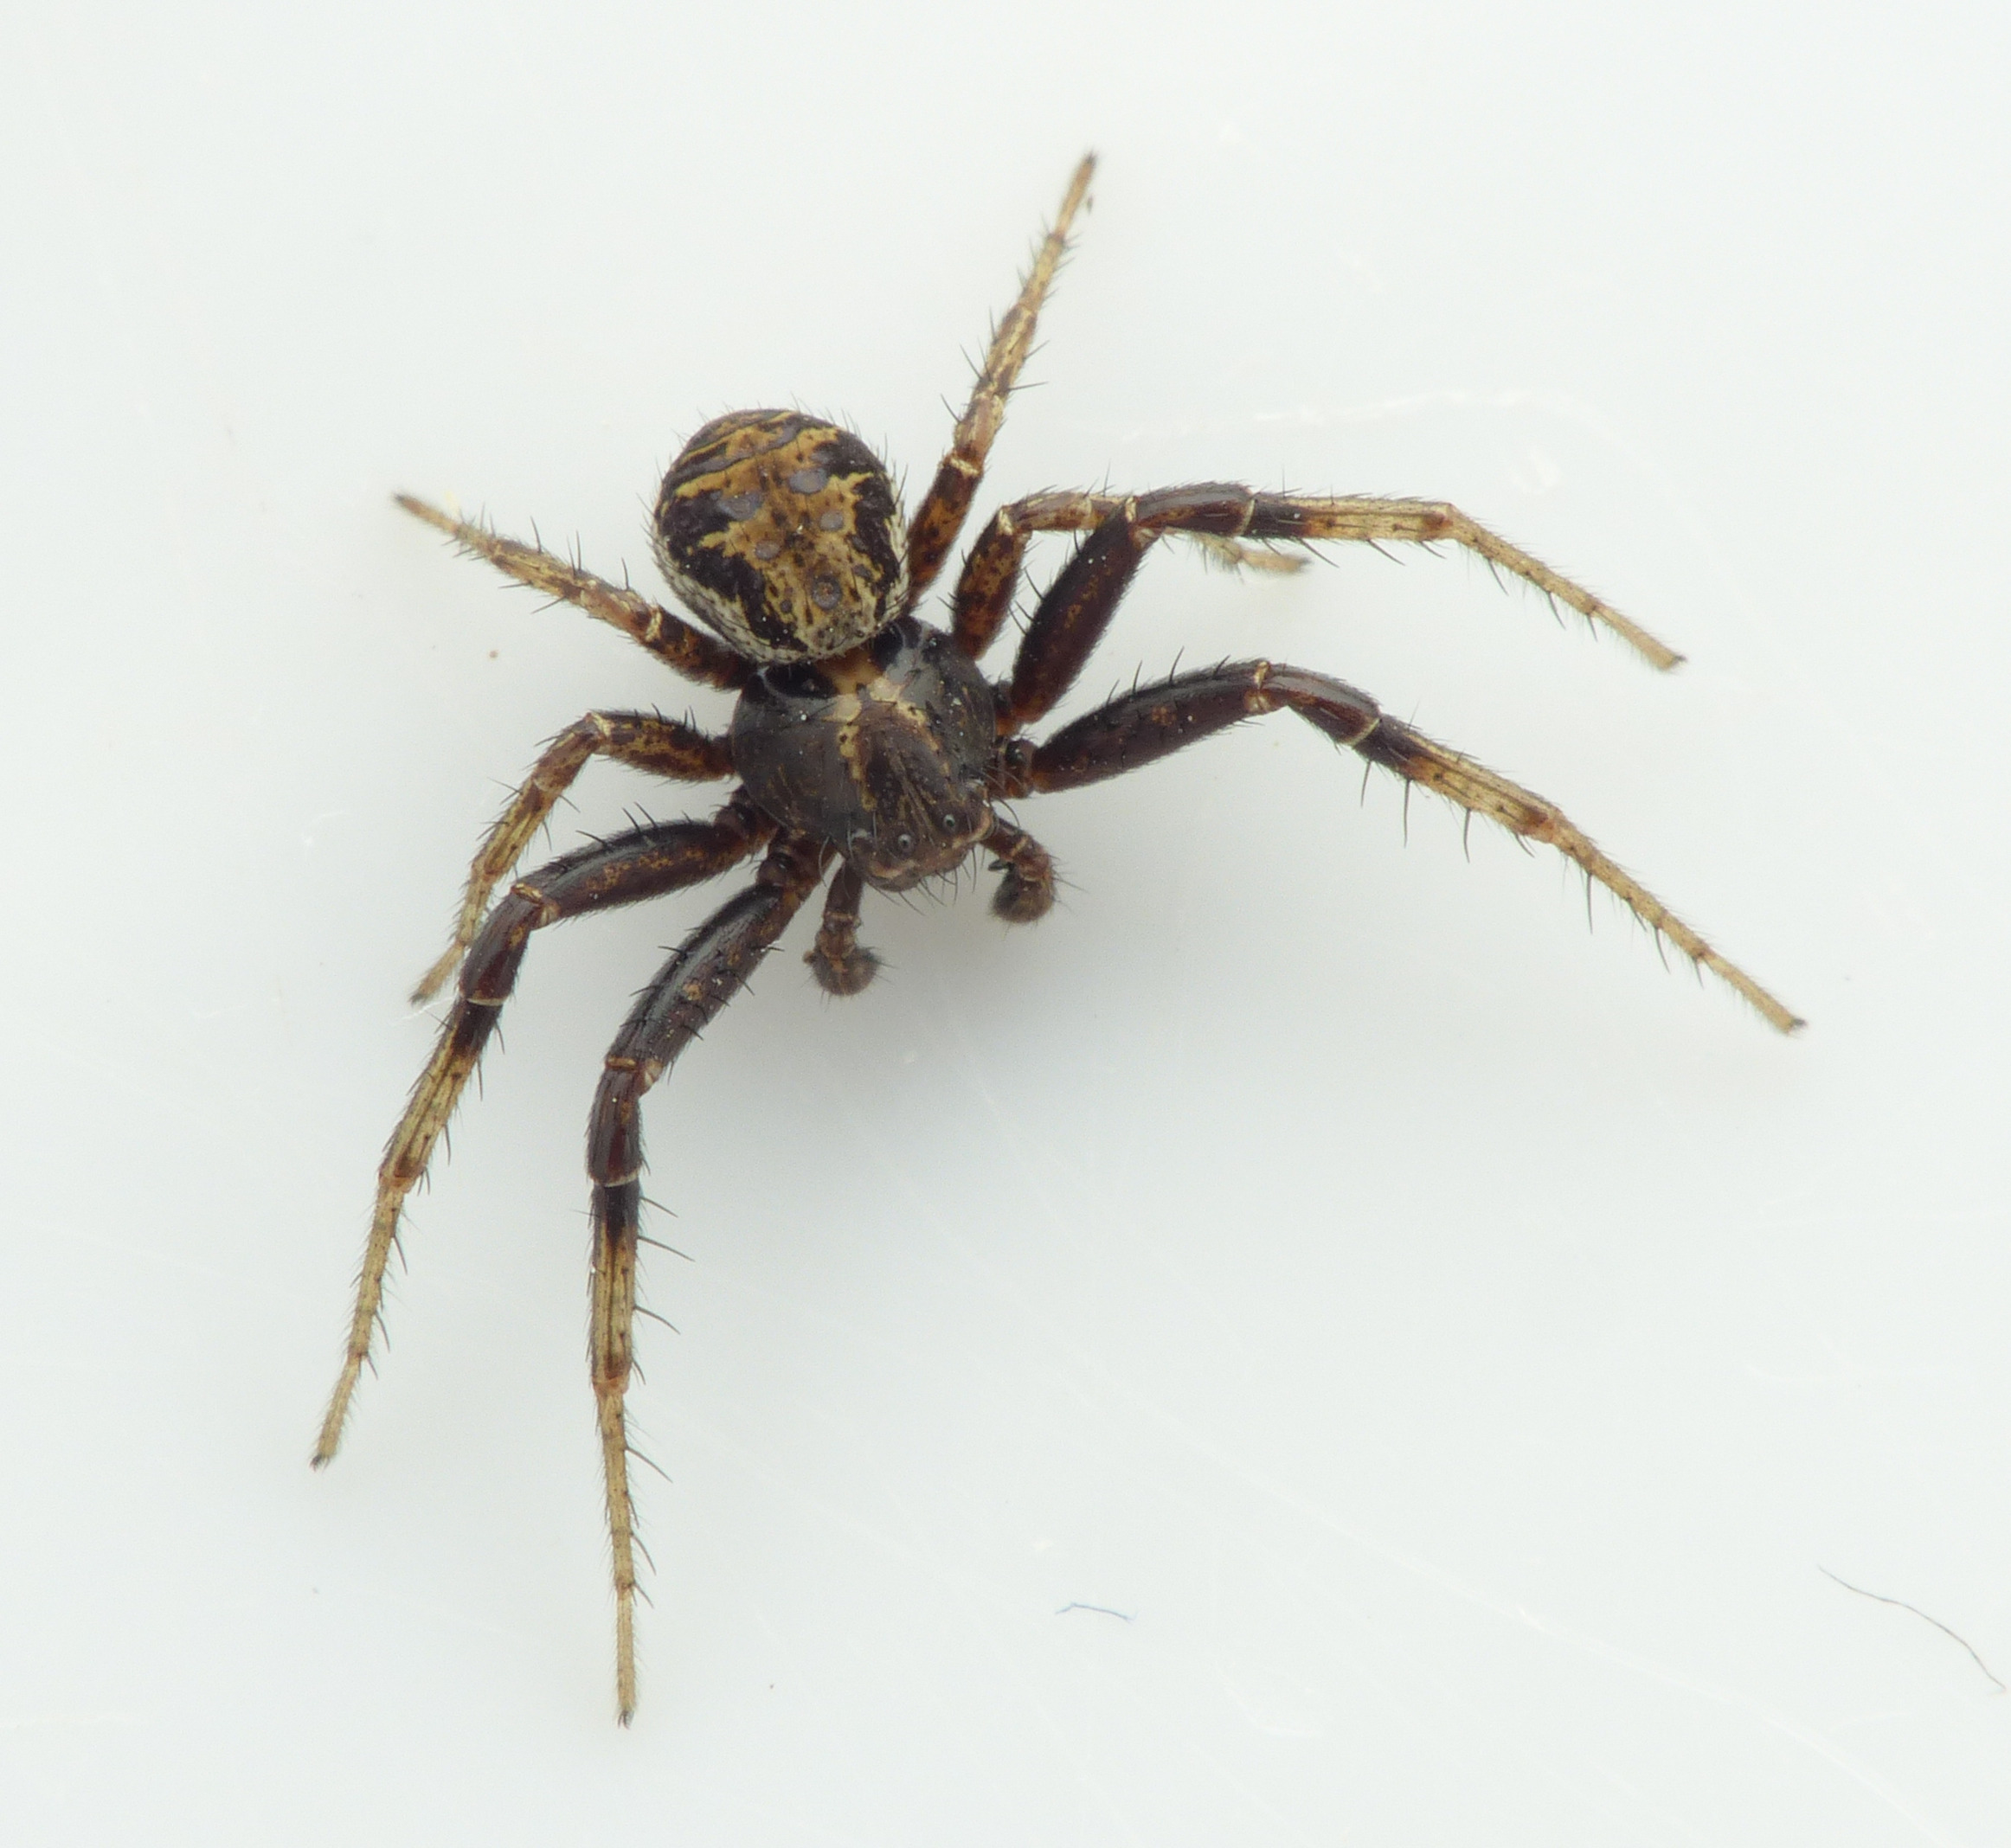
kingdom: Animalia
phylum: Arthropoda
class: Arachnida
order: Araneae
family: Thomisidae
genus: Xysticus
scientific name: Xysticus
